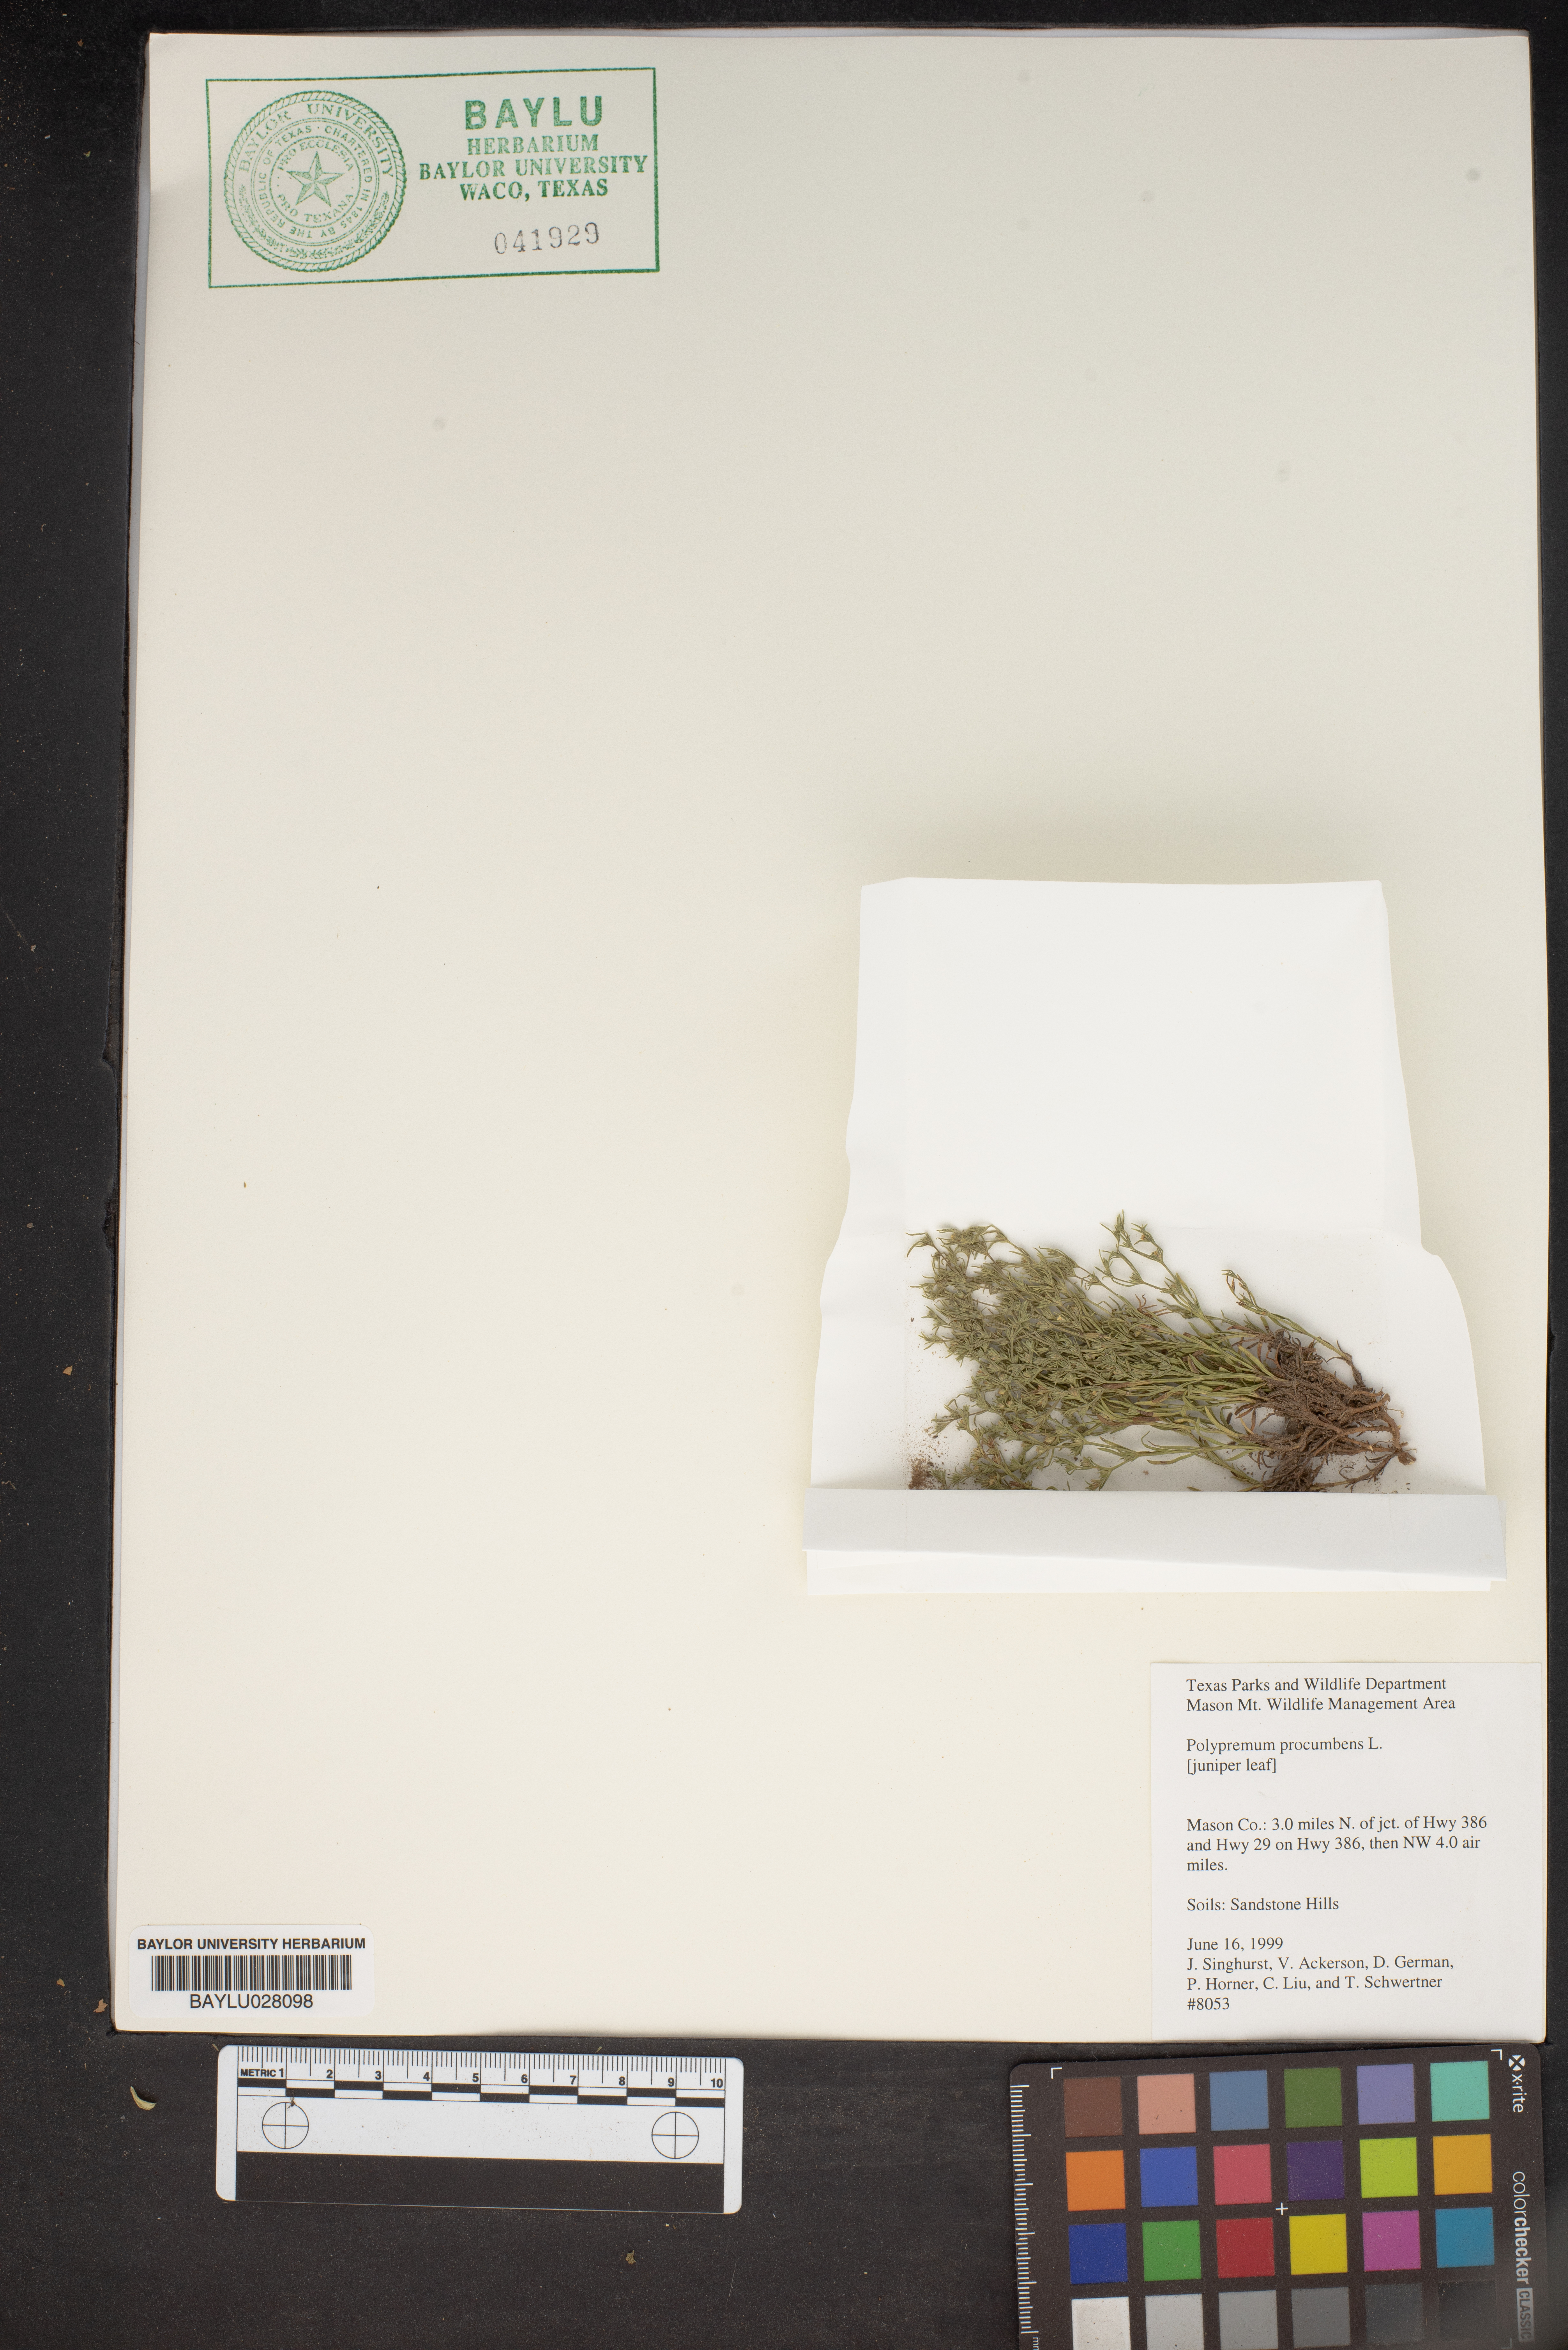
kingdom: Plantae
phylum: Tracheophyta
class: Magnoliopsida
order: Lamiales
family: Tetrachondraceae
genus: Polypremum
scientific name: Polypremum procumbens
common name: Juniper-leaf
